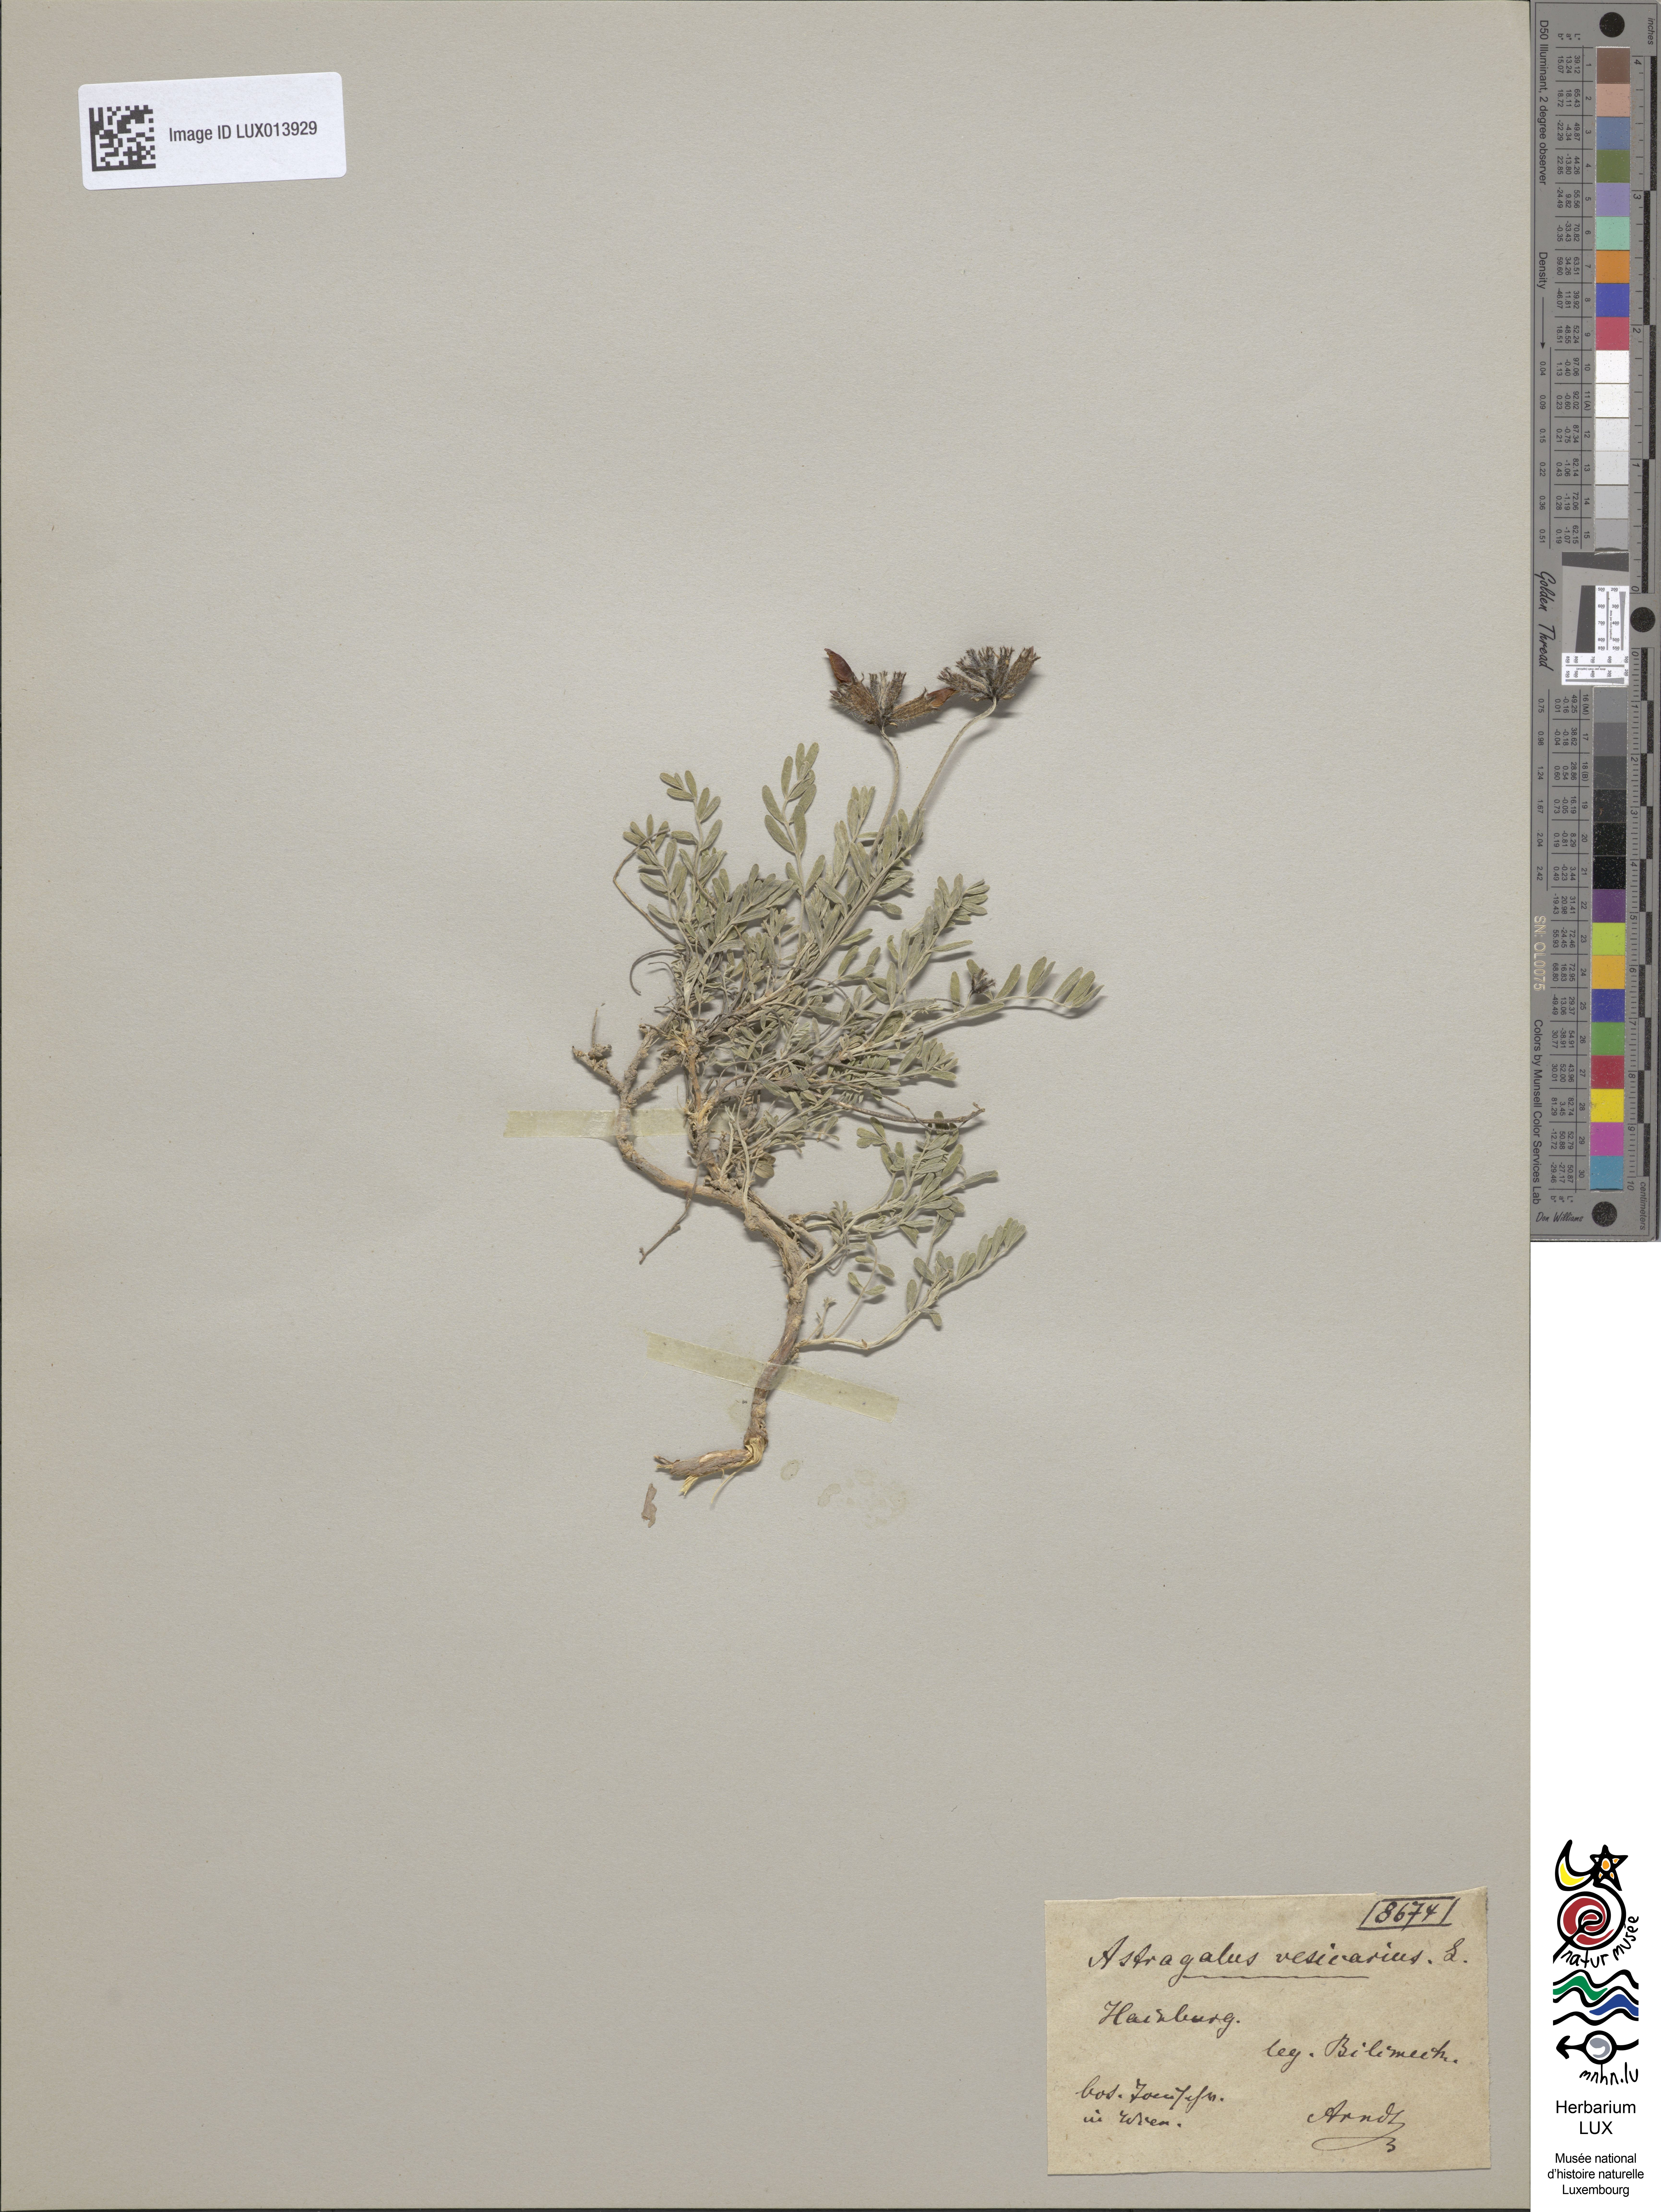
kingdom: Plantae
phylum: Tracheophyta
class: Magnoliopsida
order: Fabales
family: Fabaceae
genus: Astragalus
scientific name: Astragalus vesicarius
